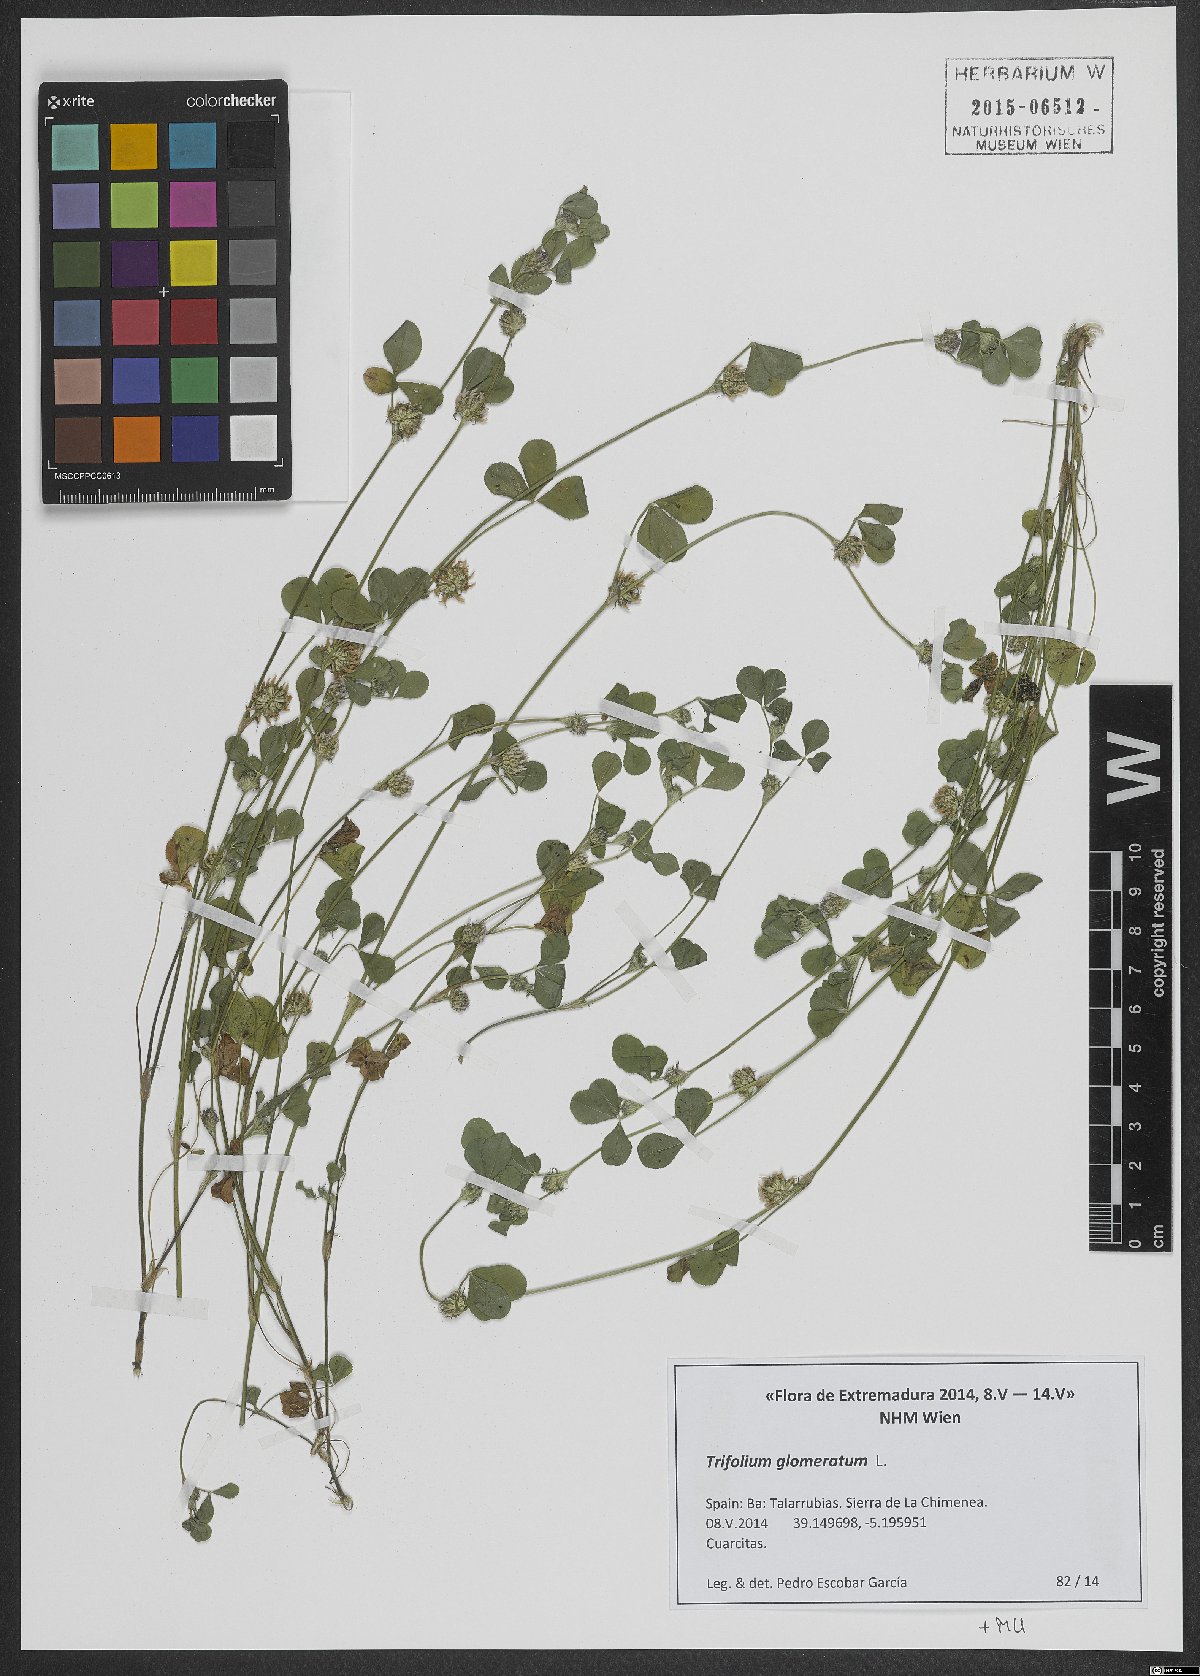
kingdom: Plantae
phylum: Tracheophyta
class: Magnoliopsida
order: Fabales
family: Fabaceae
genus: Trifolium
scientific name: Trifolium glomeratum
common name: Clustered clover
